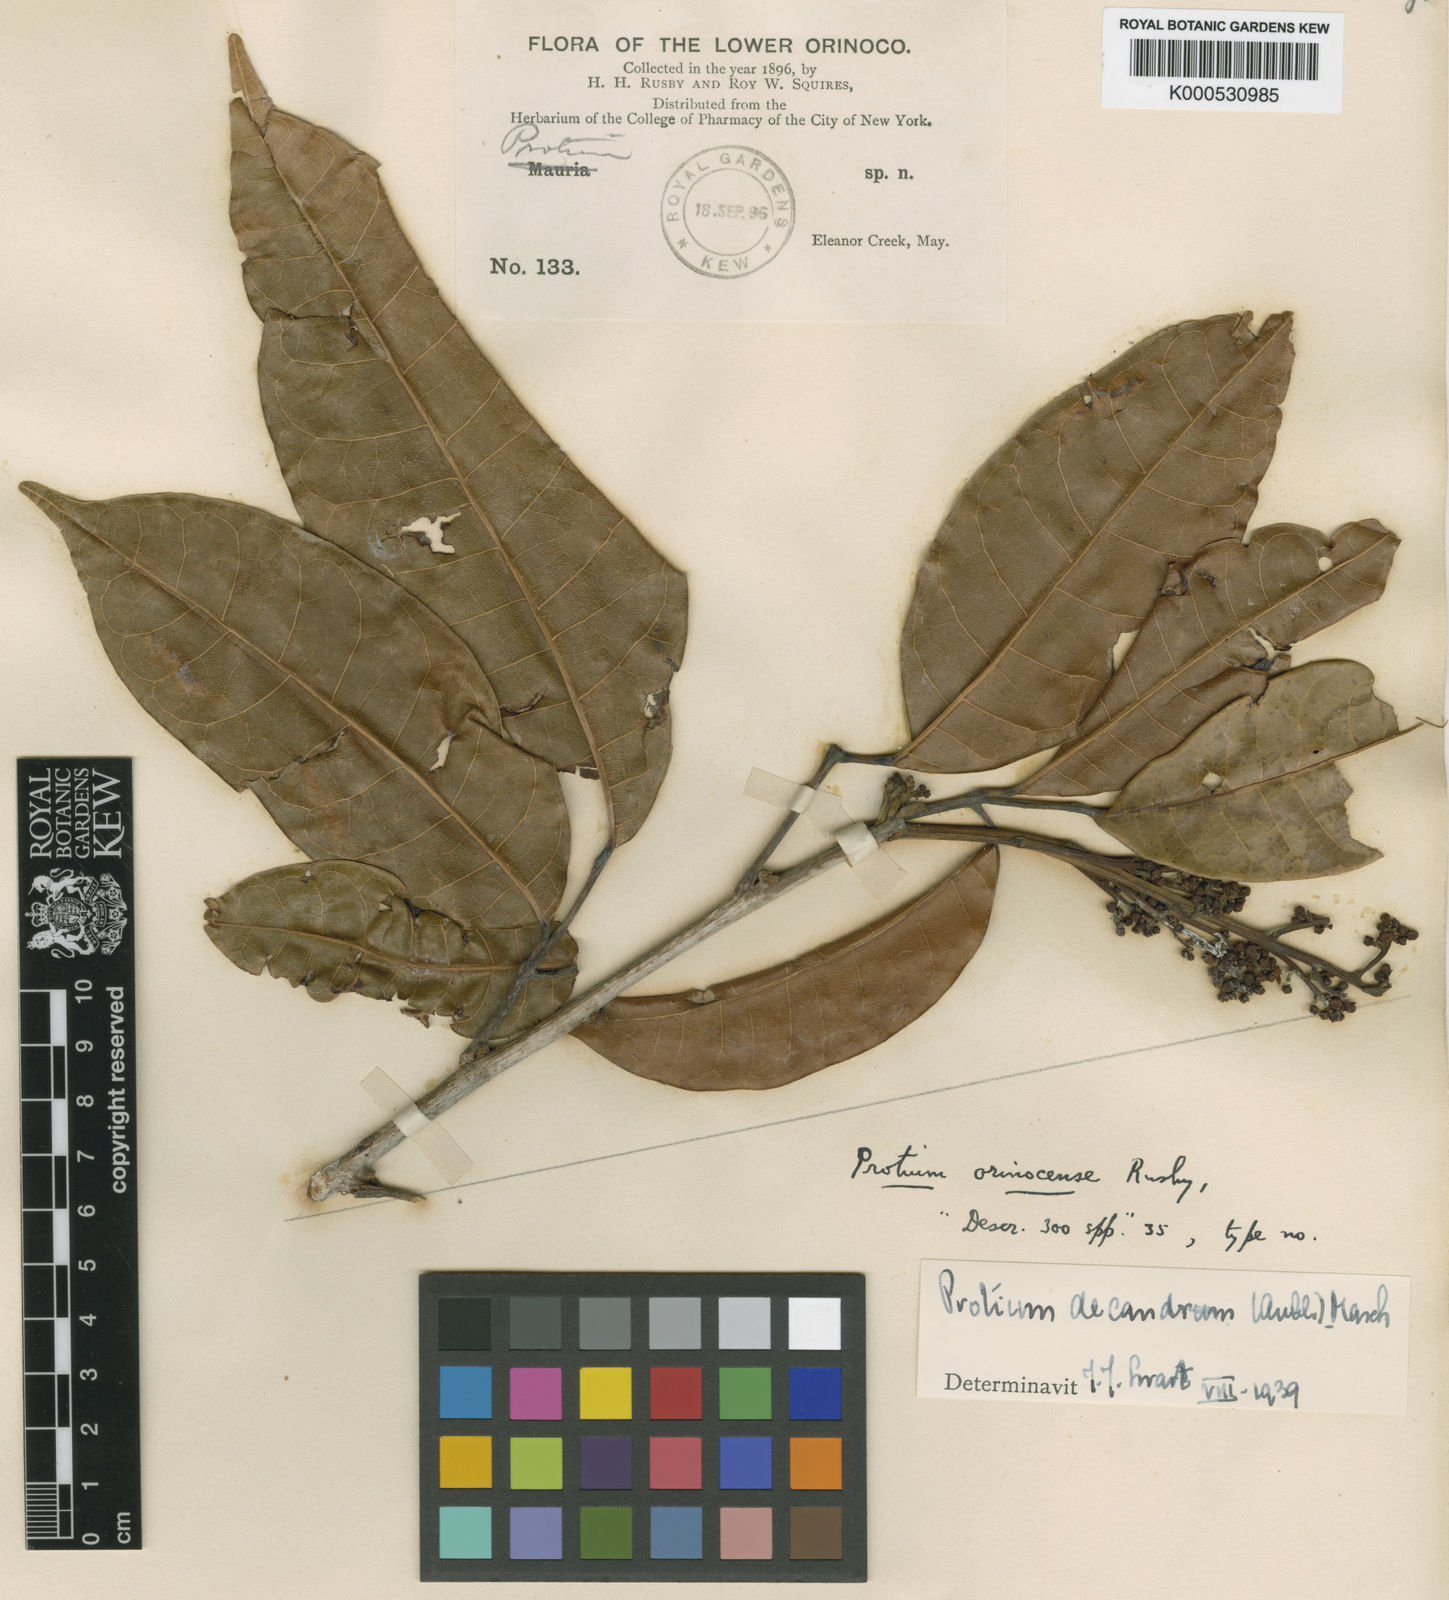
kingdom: Plantae
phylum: Tracheophyta
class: Magnoliopsida
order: Sapindales
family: Burseraceae
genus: Protium
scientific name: Protium decandrum
